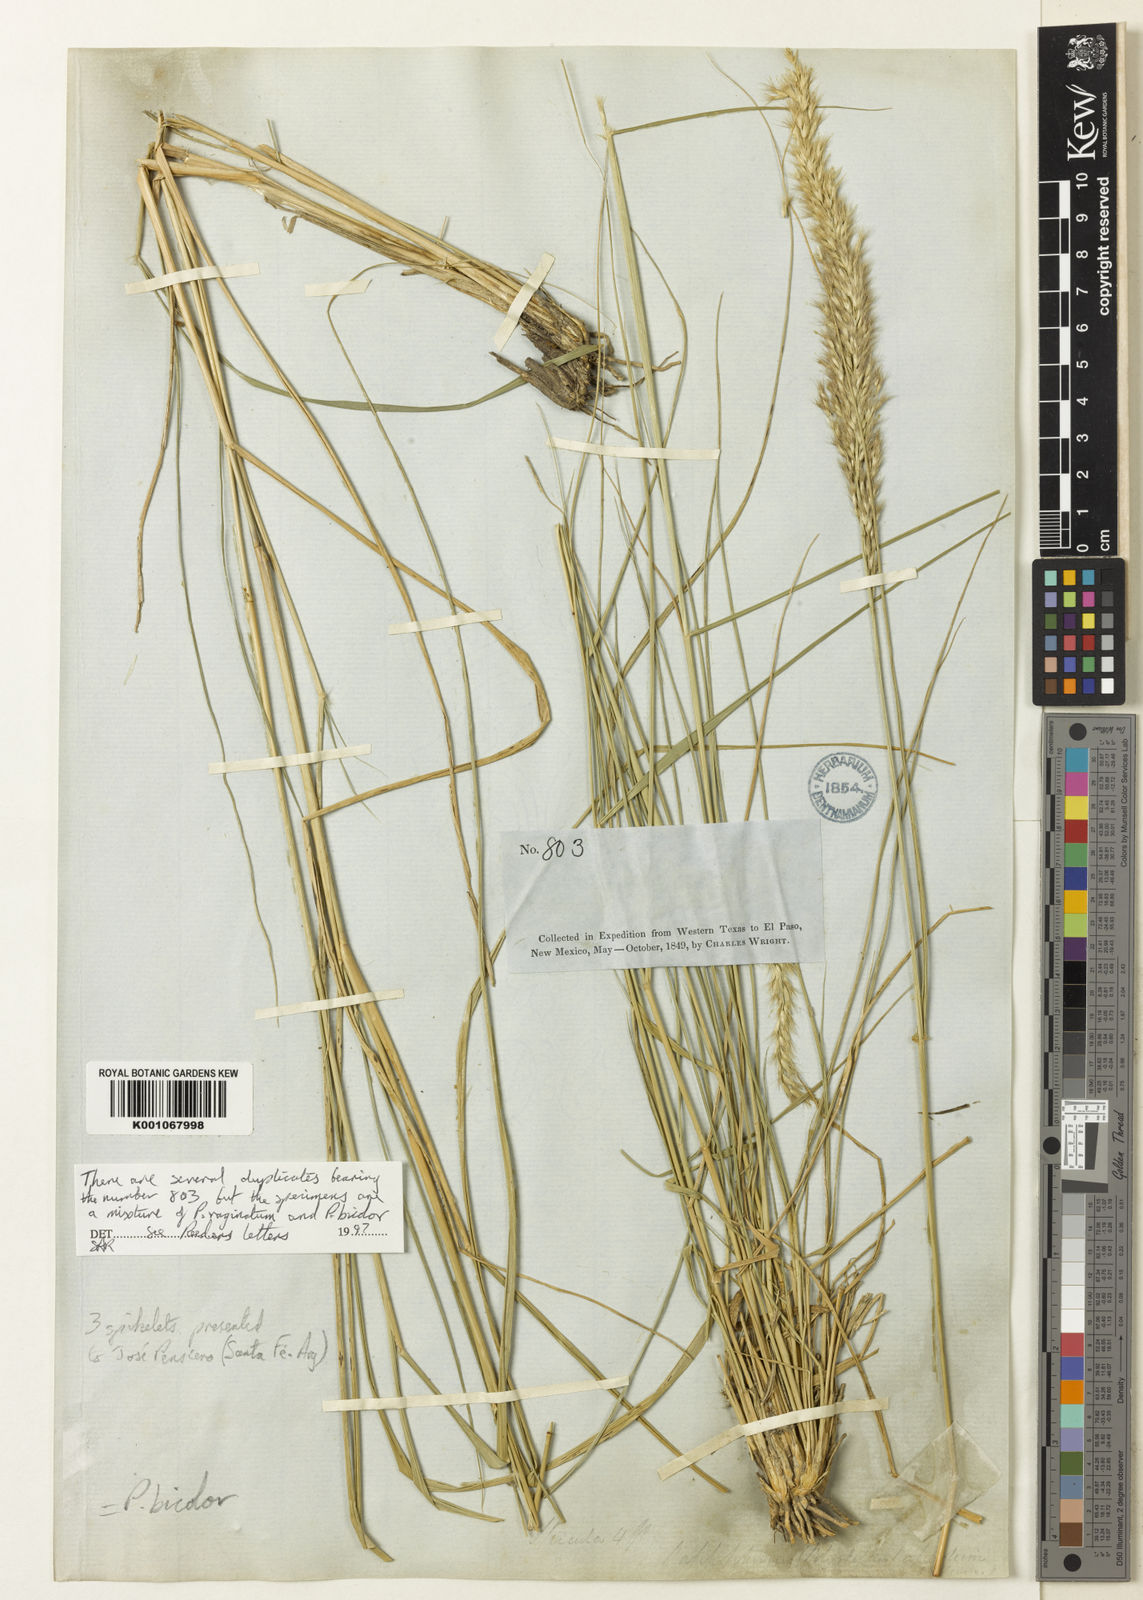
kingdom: Plantae
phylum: Tracheophyta
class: Liliopsida
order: Poales
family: Poaceae
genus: Pappophorum
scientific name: Pappophorum bicolor
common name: Pink pappus grass
